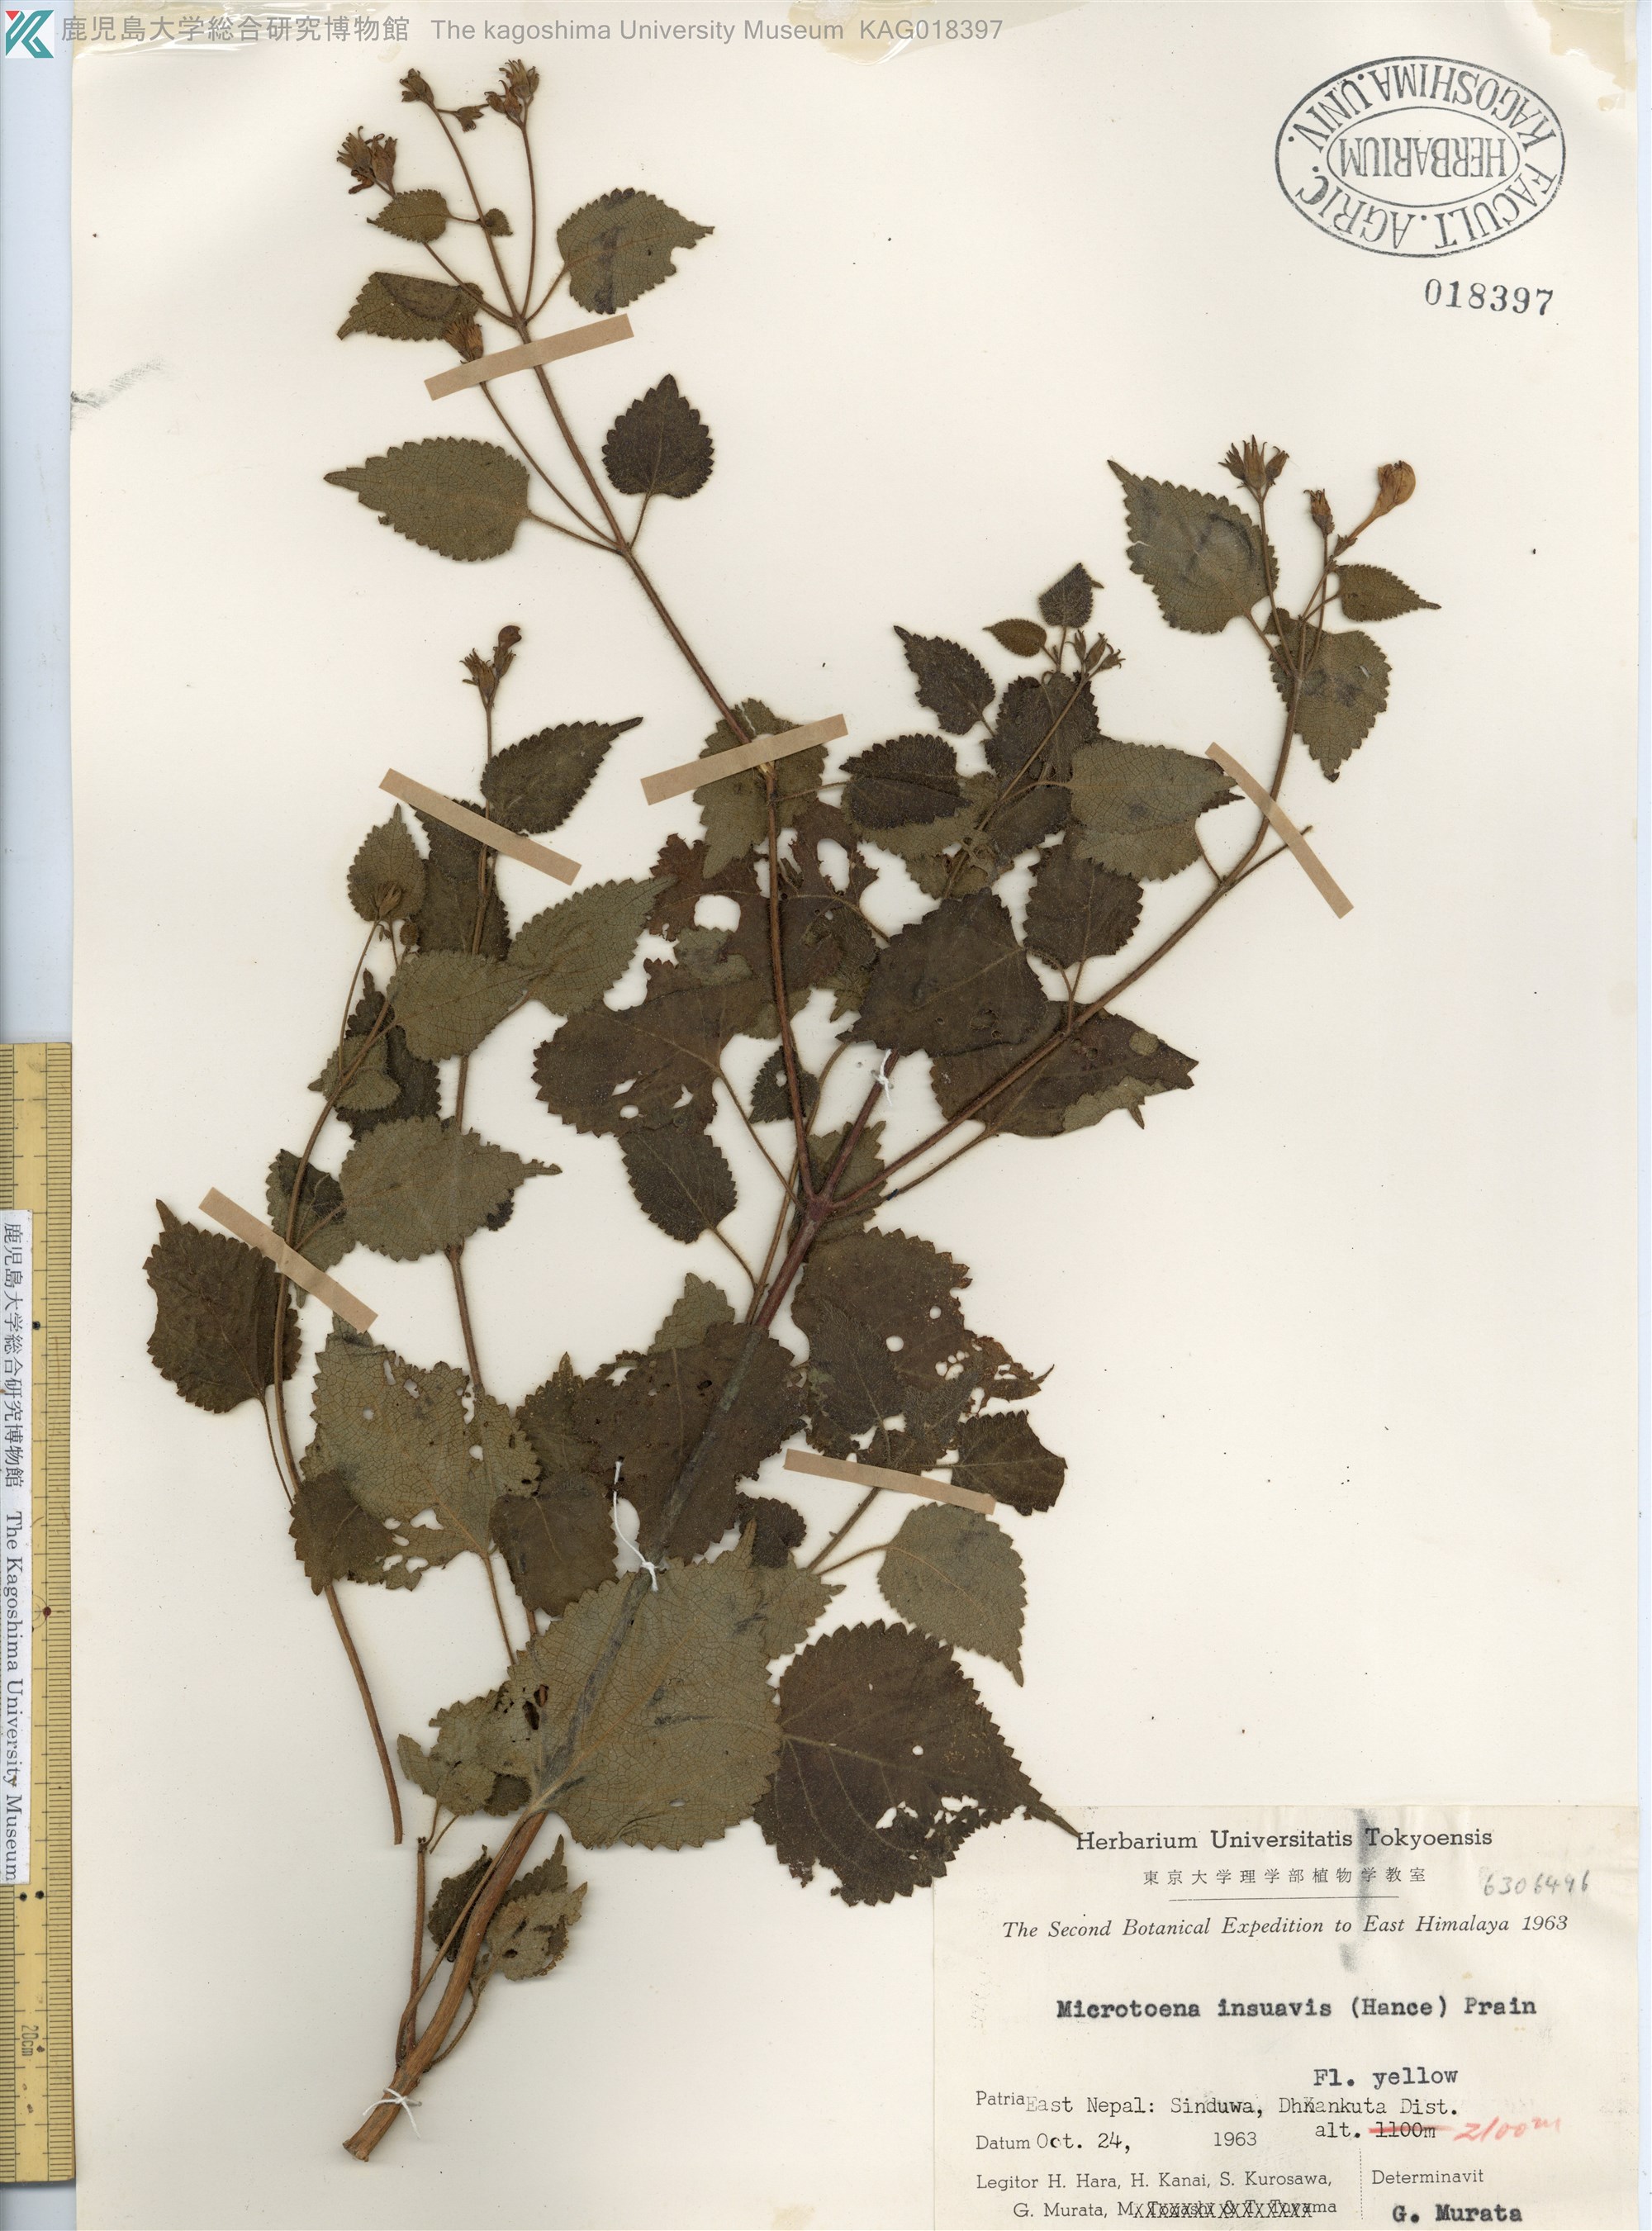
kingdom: Plantae
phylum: Tracheophyta
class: Magnoliopsida
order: Lamiales
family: Lamiaceae
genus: Microtoena
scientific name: Microtoena insuavis
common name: Chinese patchouli
